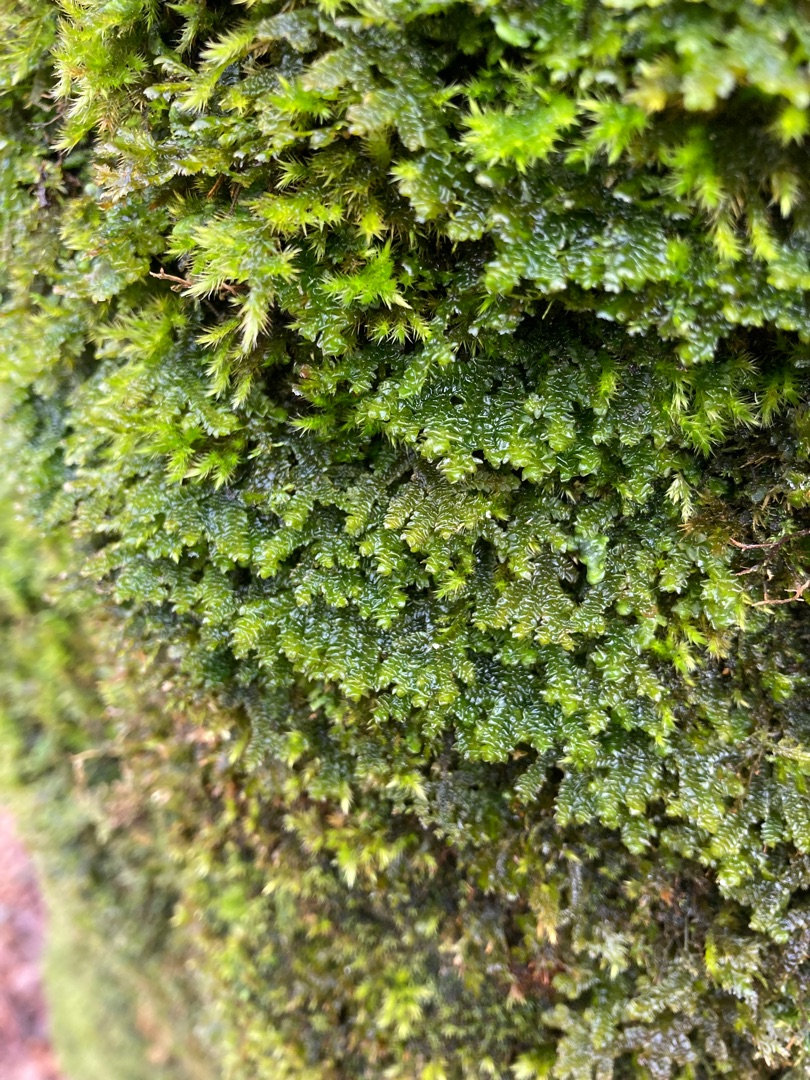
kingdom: Plantae
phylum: Marchantiophyta
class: Jungermanniopsida
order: Porellales
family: Porellaceae
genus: Porella
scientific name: Porella platyphylla
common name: Almindelig skælryg
